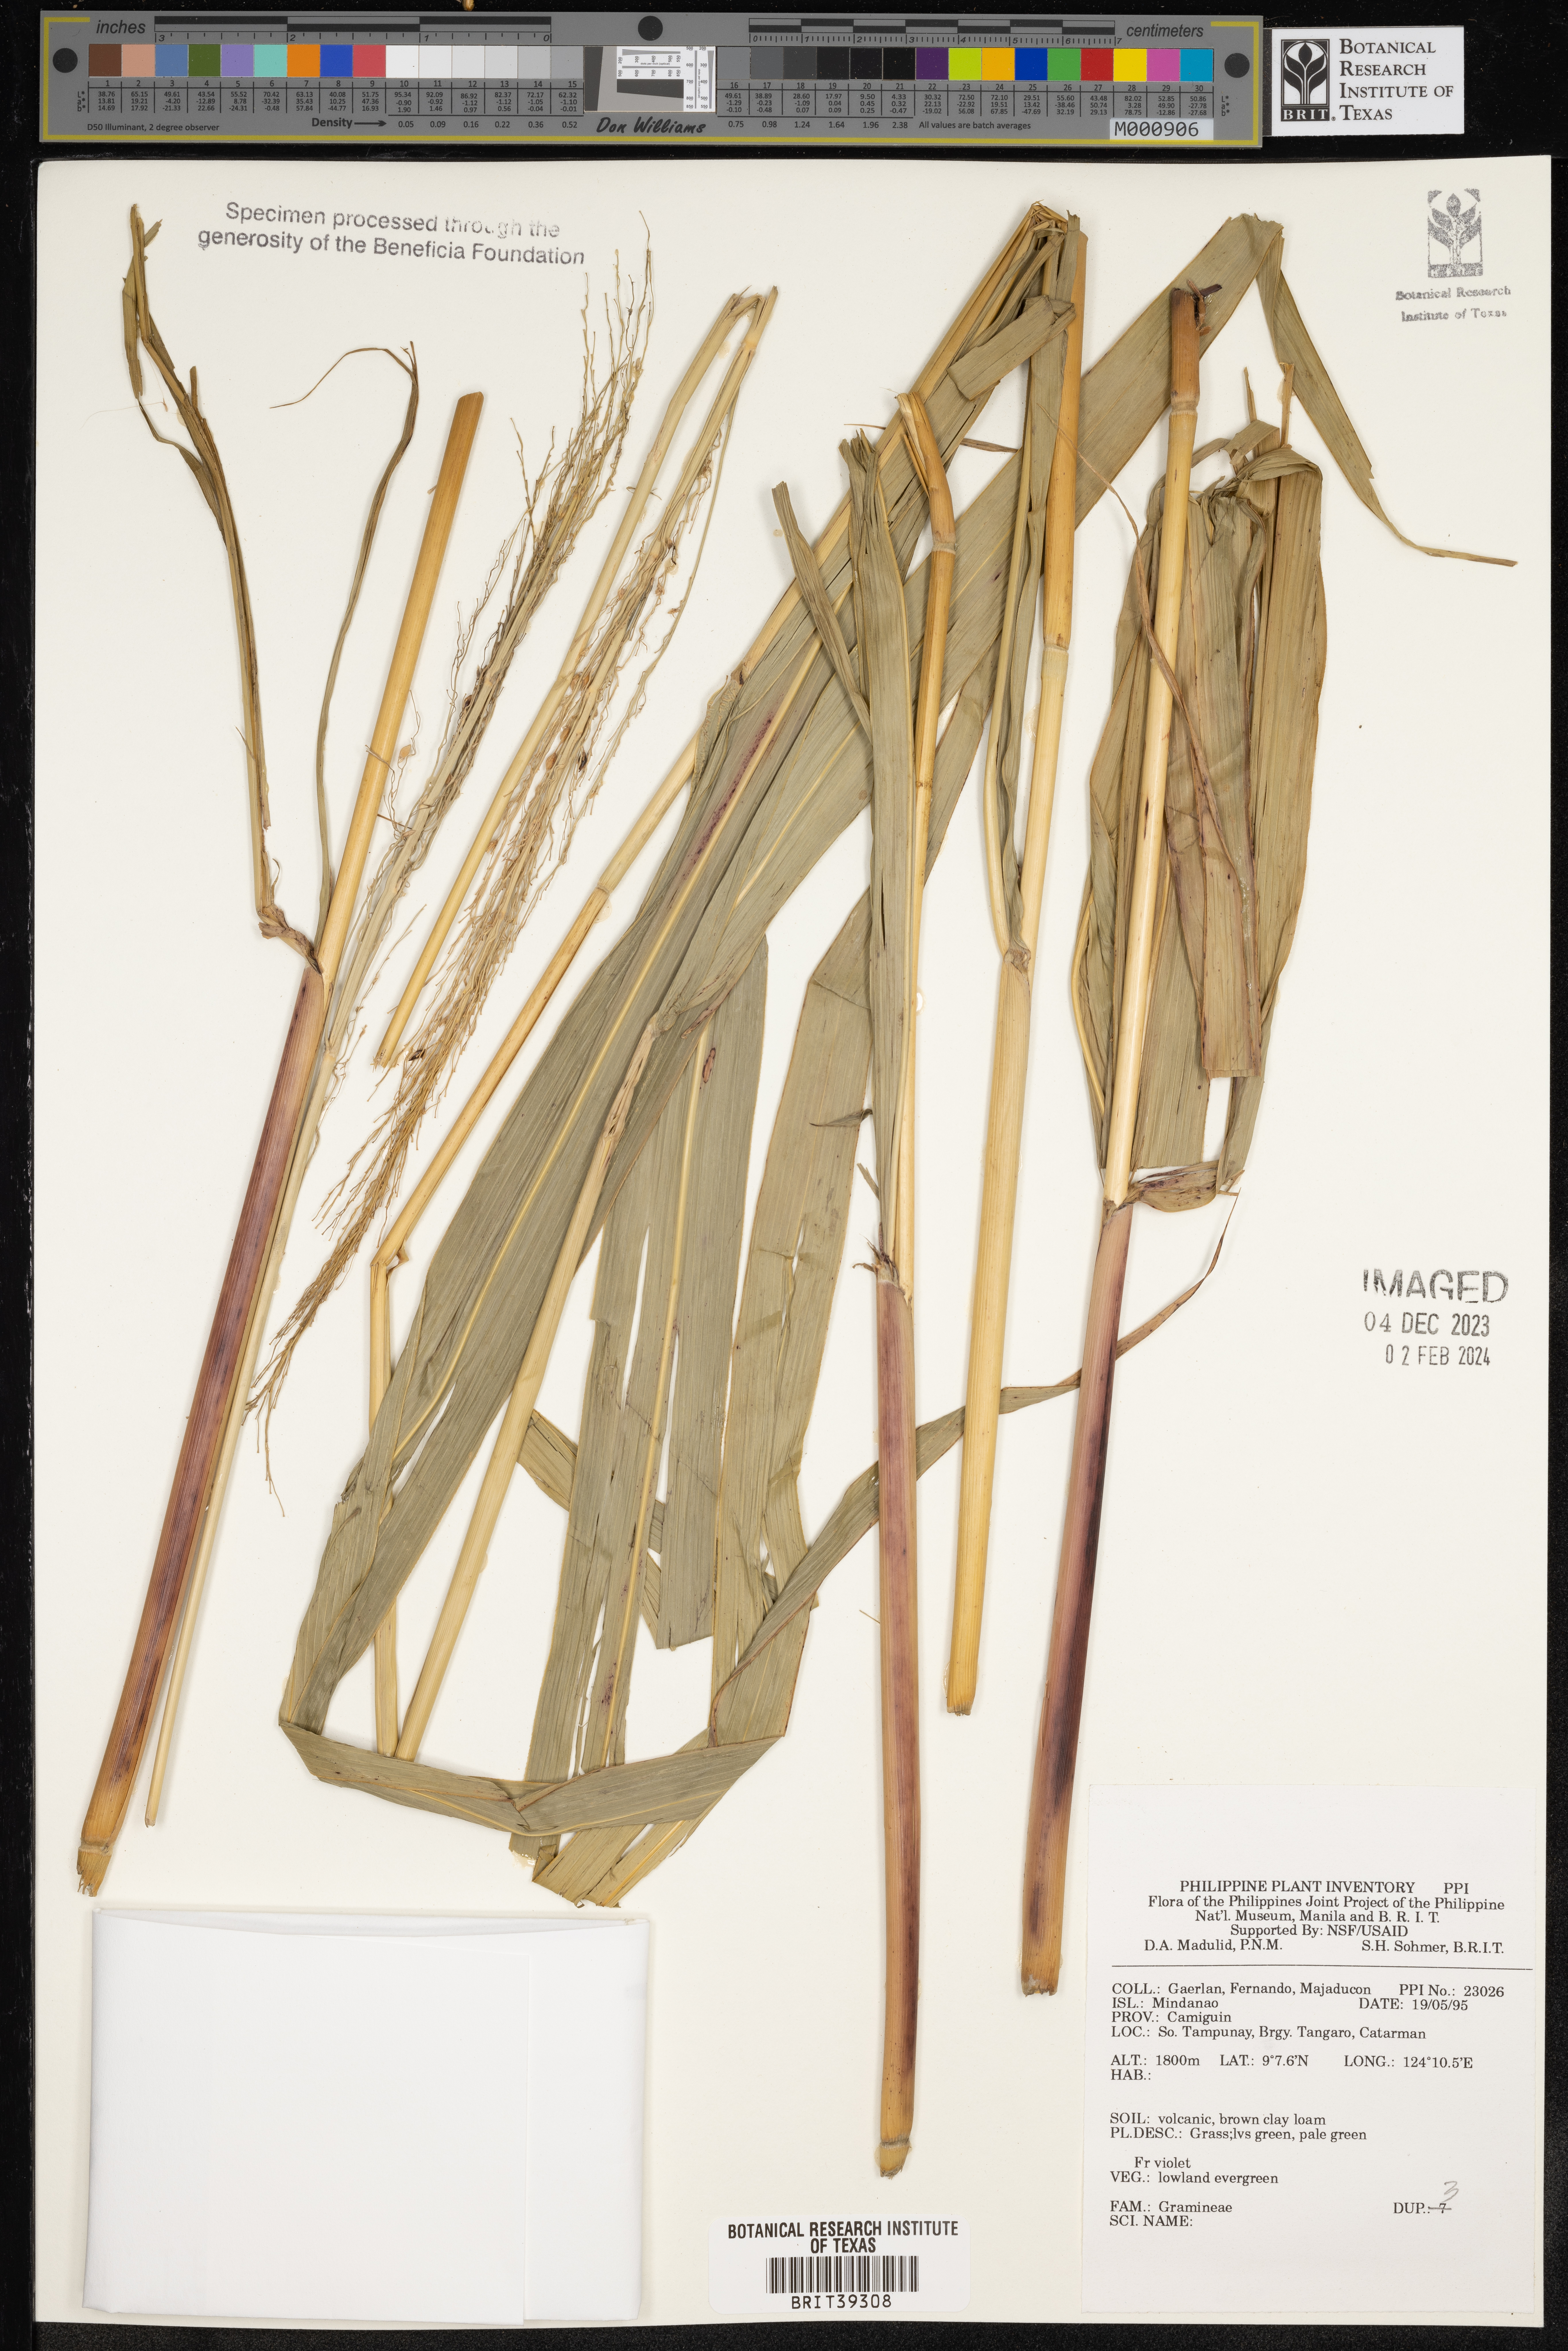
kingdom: Plantae
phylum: Tracheophyta
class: Liliopsida
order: Poales
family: Poaceae
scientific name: Poaceae
